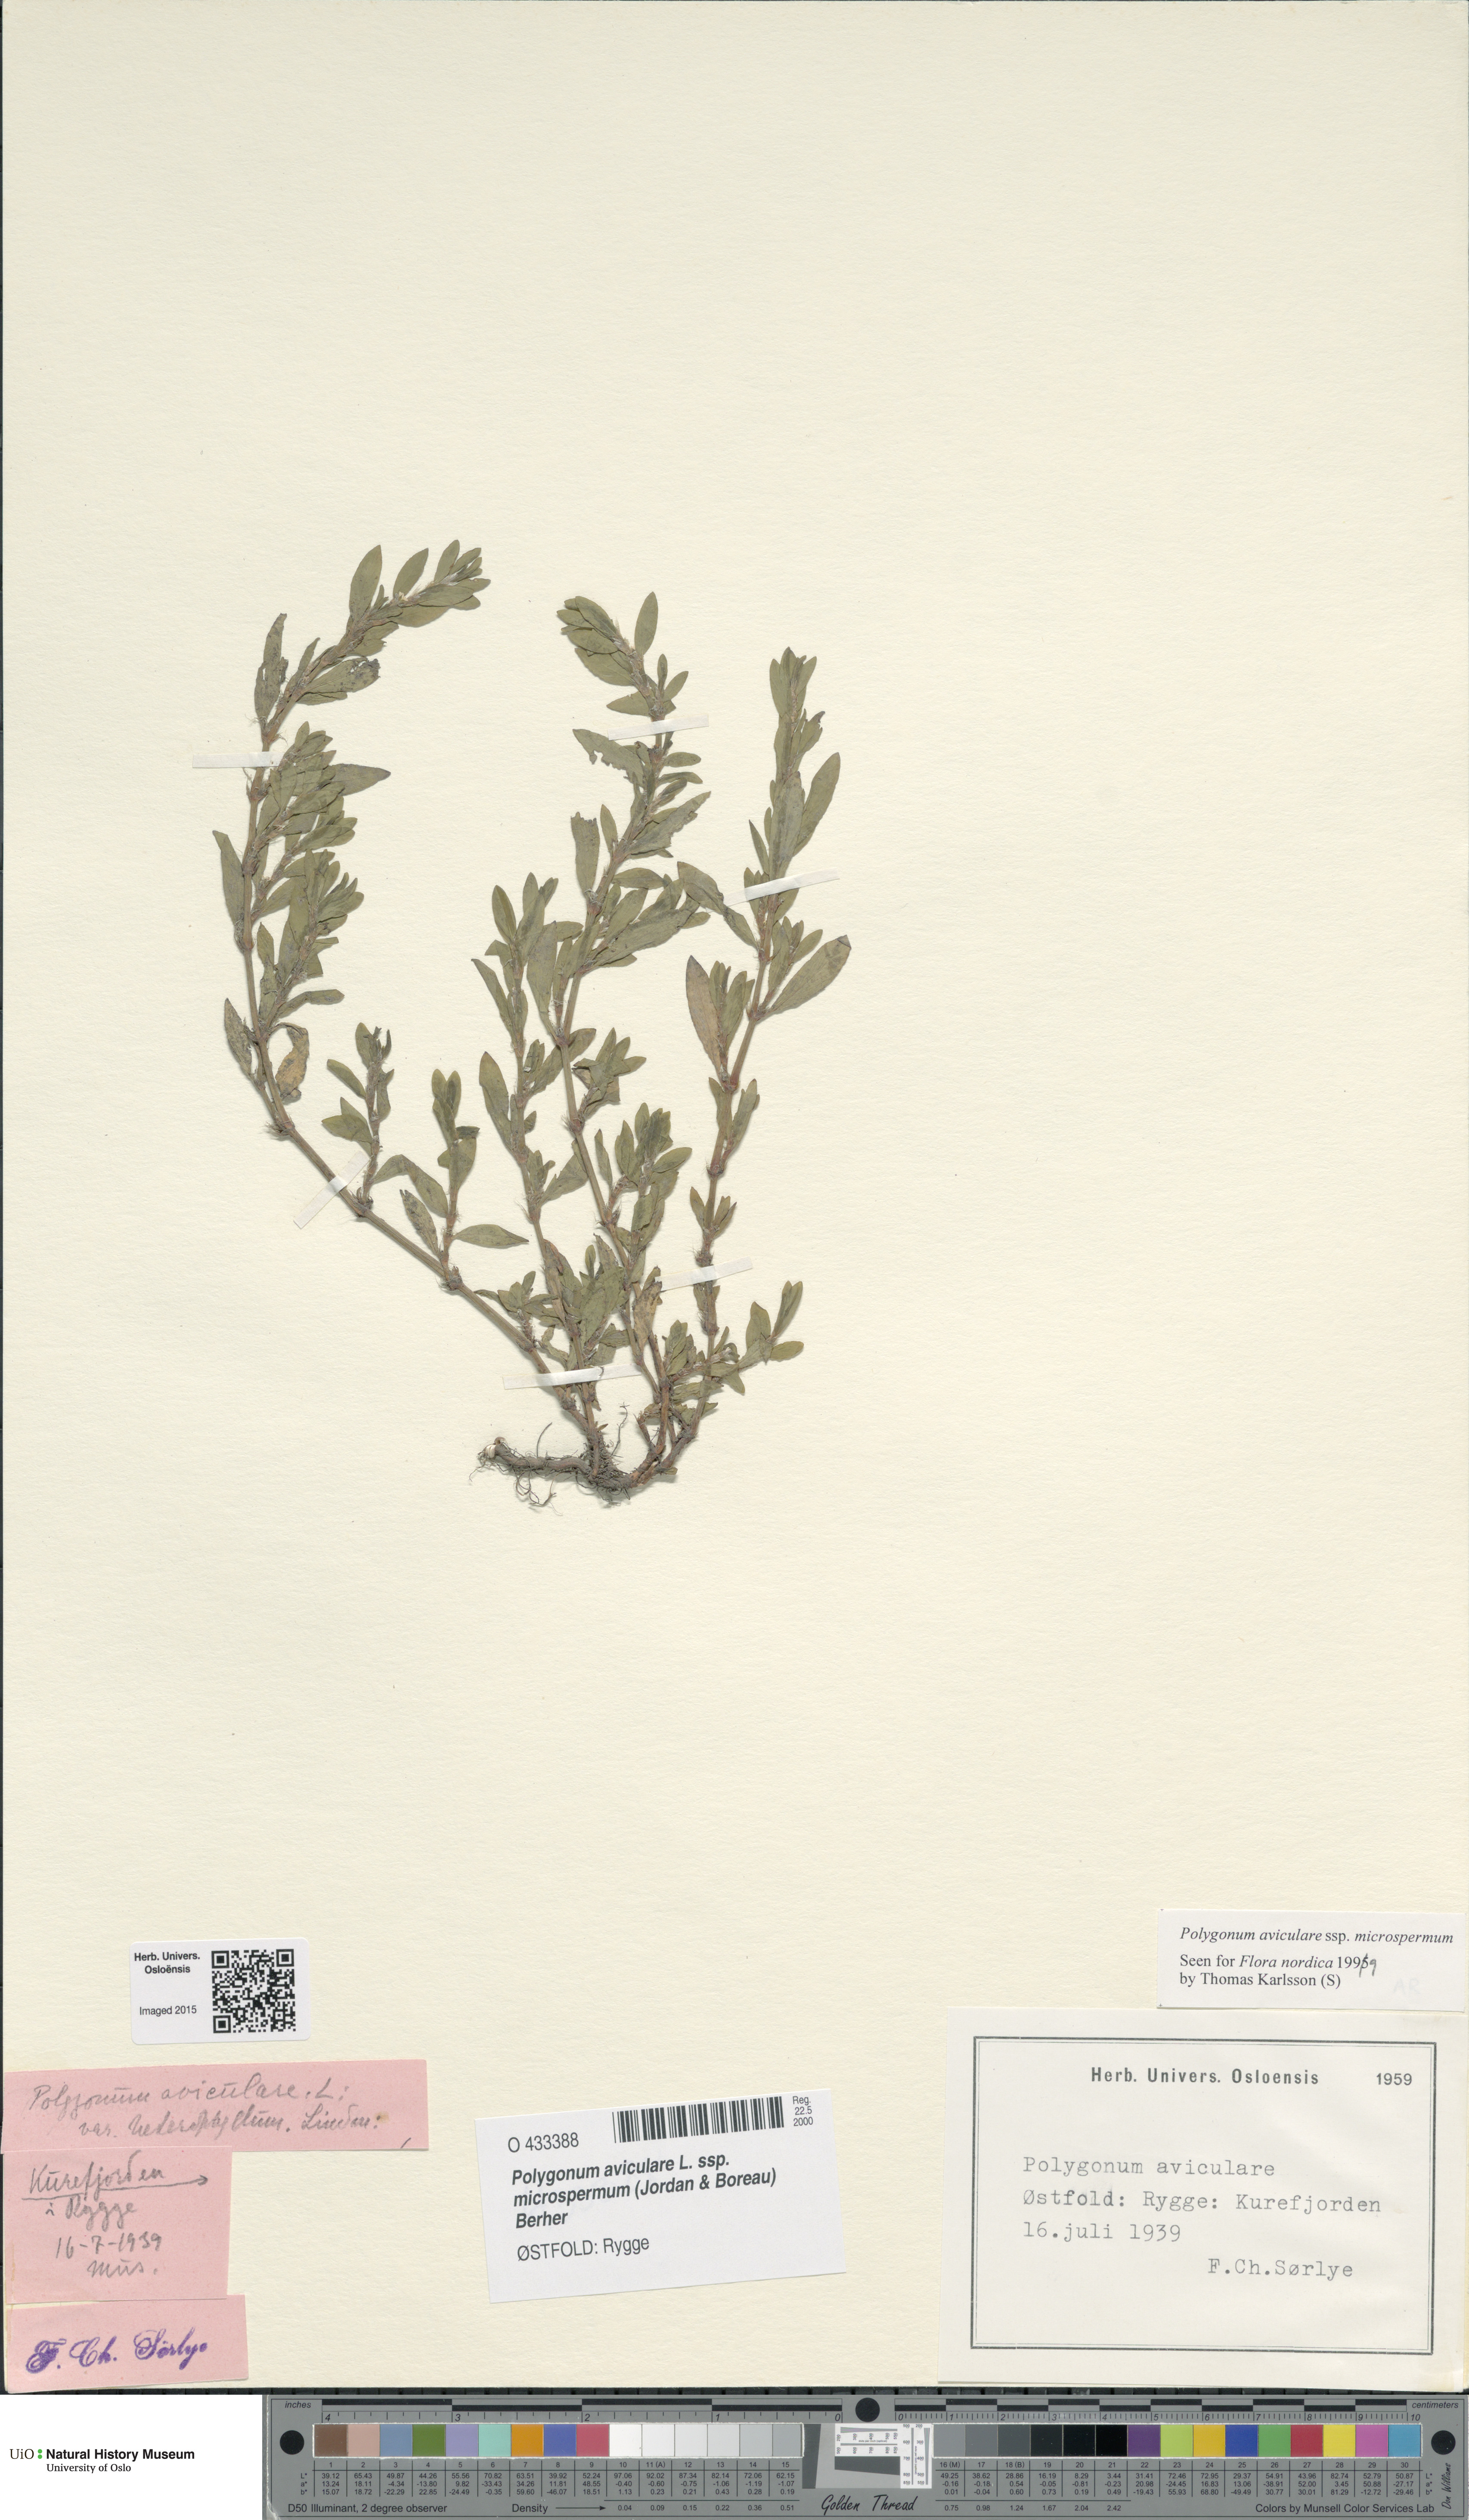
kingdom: Plantae
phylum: Tracheophyta
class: Magnoliopsida
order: Caryophyllales
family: Polygonaceae
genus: Polygonum
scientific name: Polygonum arenastrum
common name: Equal-leaved knotgrass
